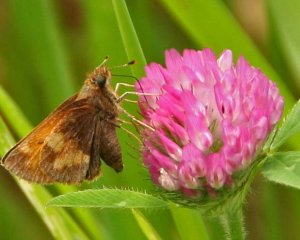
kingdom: Animalia
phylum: Arthropoda
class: Insecta
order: Lepidoptera
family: Hesperiidae
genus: Lon
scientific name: Lon hobomok
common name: Hobomok Skipper
